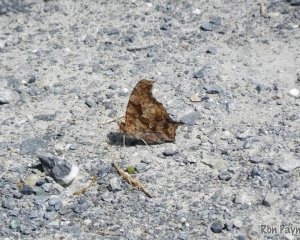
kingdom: Animalia
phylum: Arthropoda
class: Insecta
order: Lepidoptera
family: Nymphalidae
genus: Polygonia
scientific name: Polygonia interrogationis
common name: Question Mark
